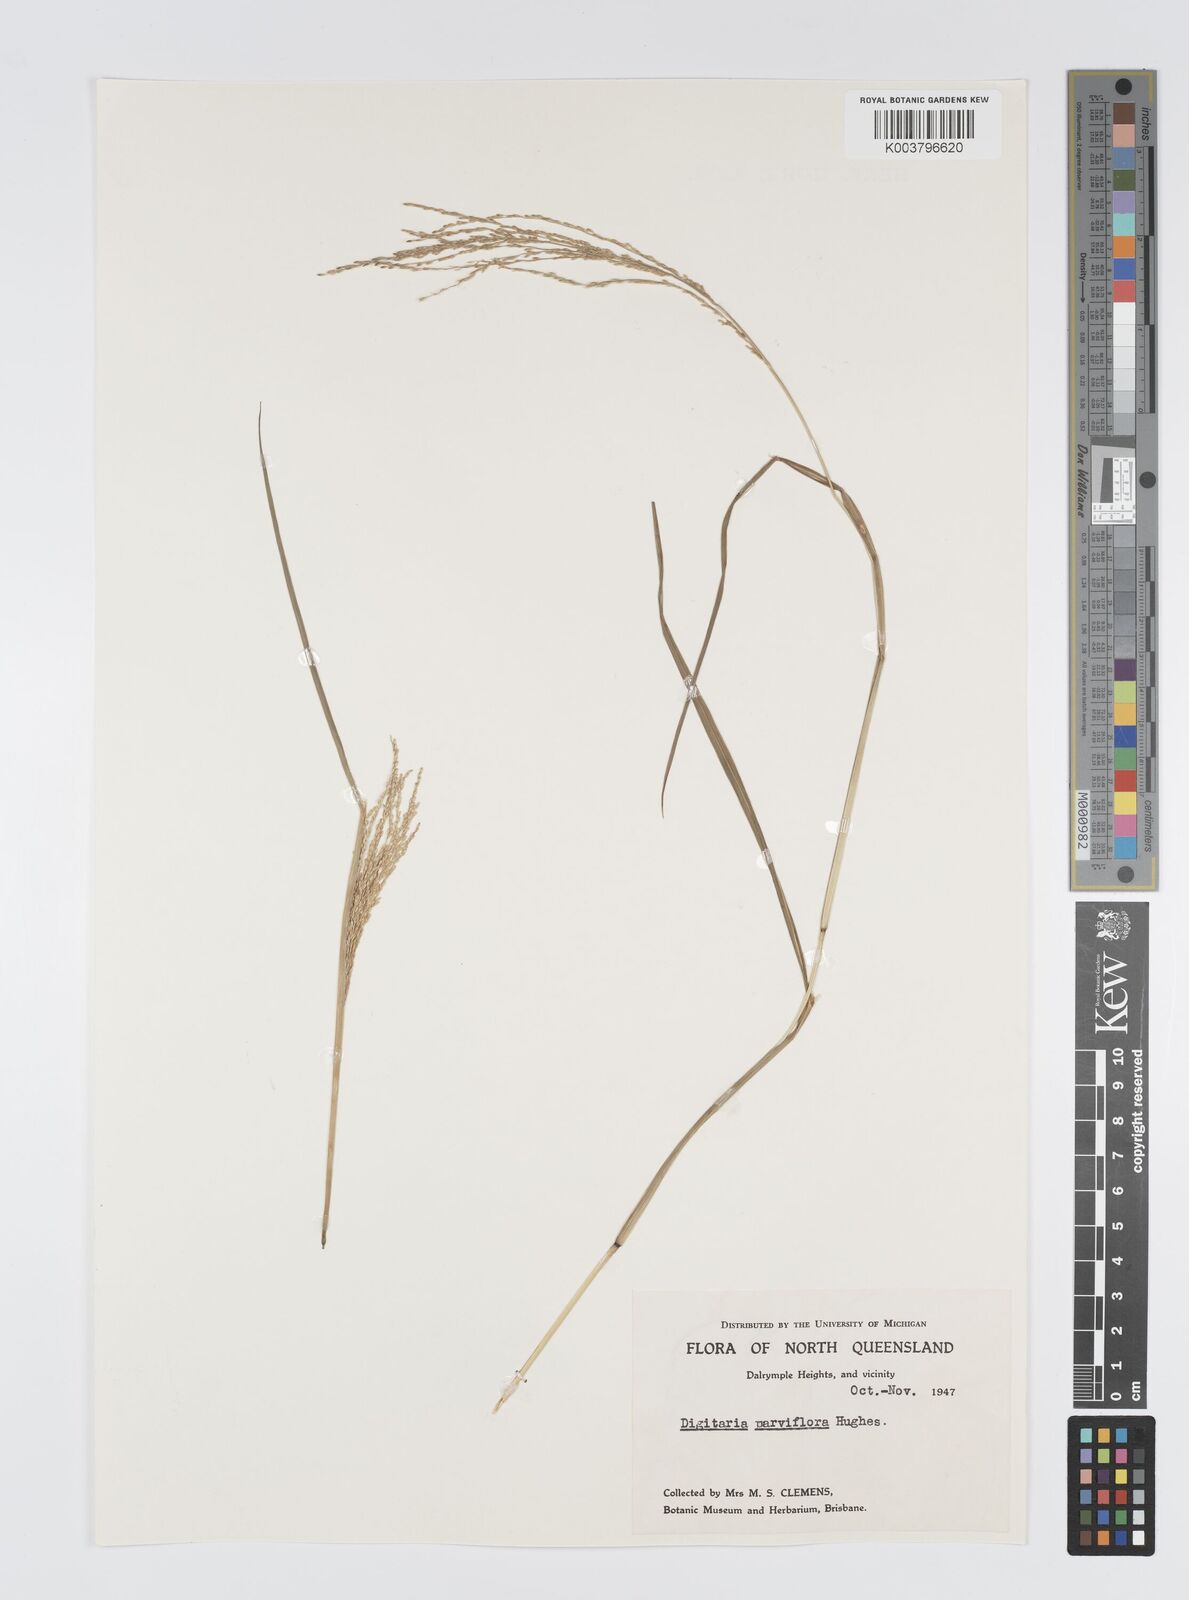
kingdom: Plantae
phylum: Tracheophyta
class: Liliopsida
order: Poales
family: Poaceae
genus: Digitaria
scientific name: Digitaria parviflora
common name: Small-flower finger grass
